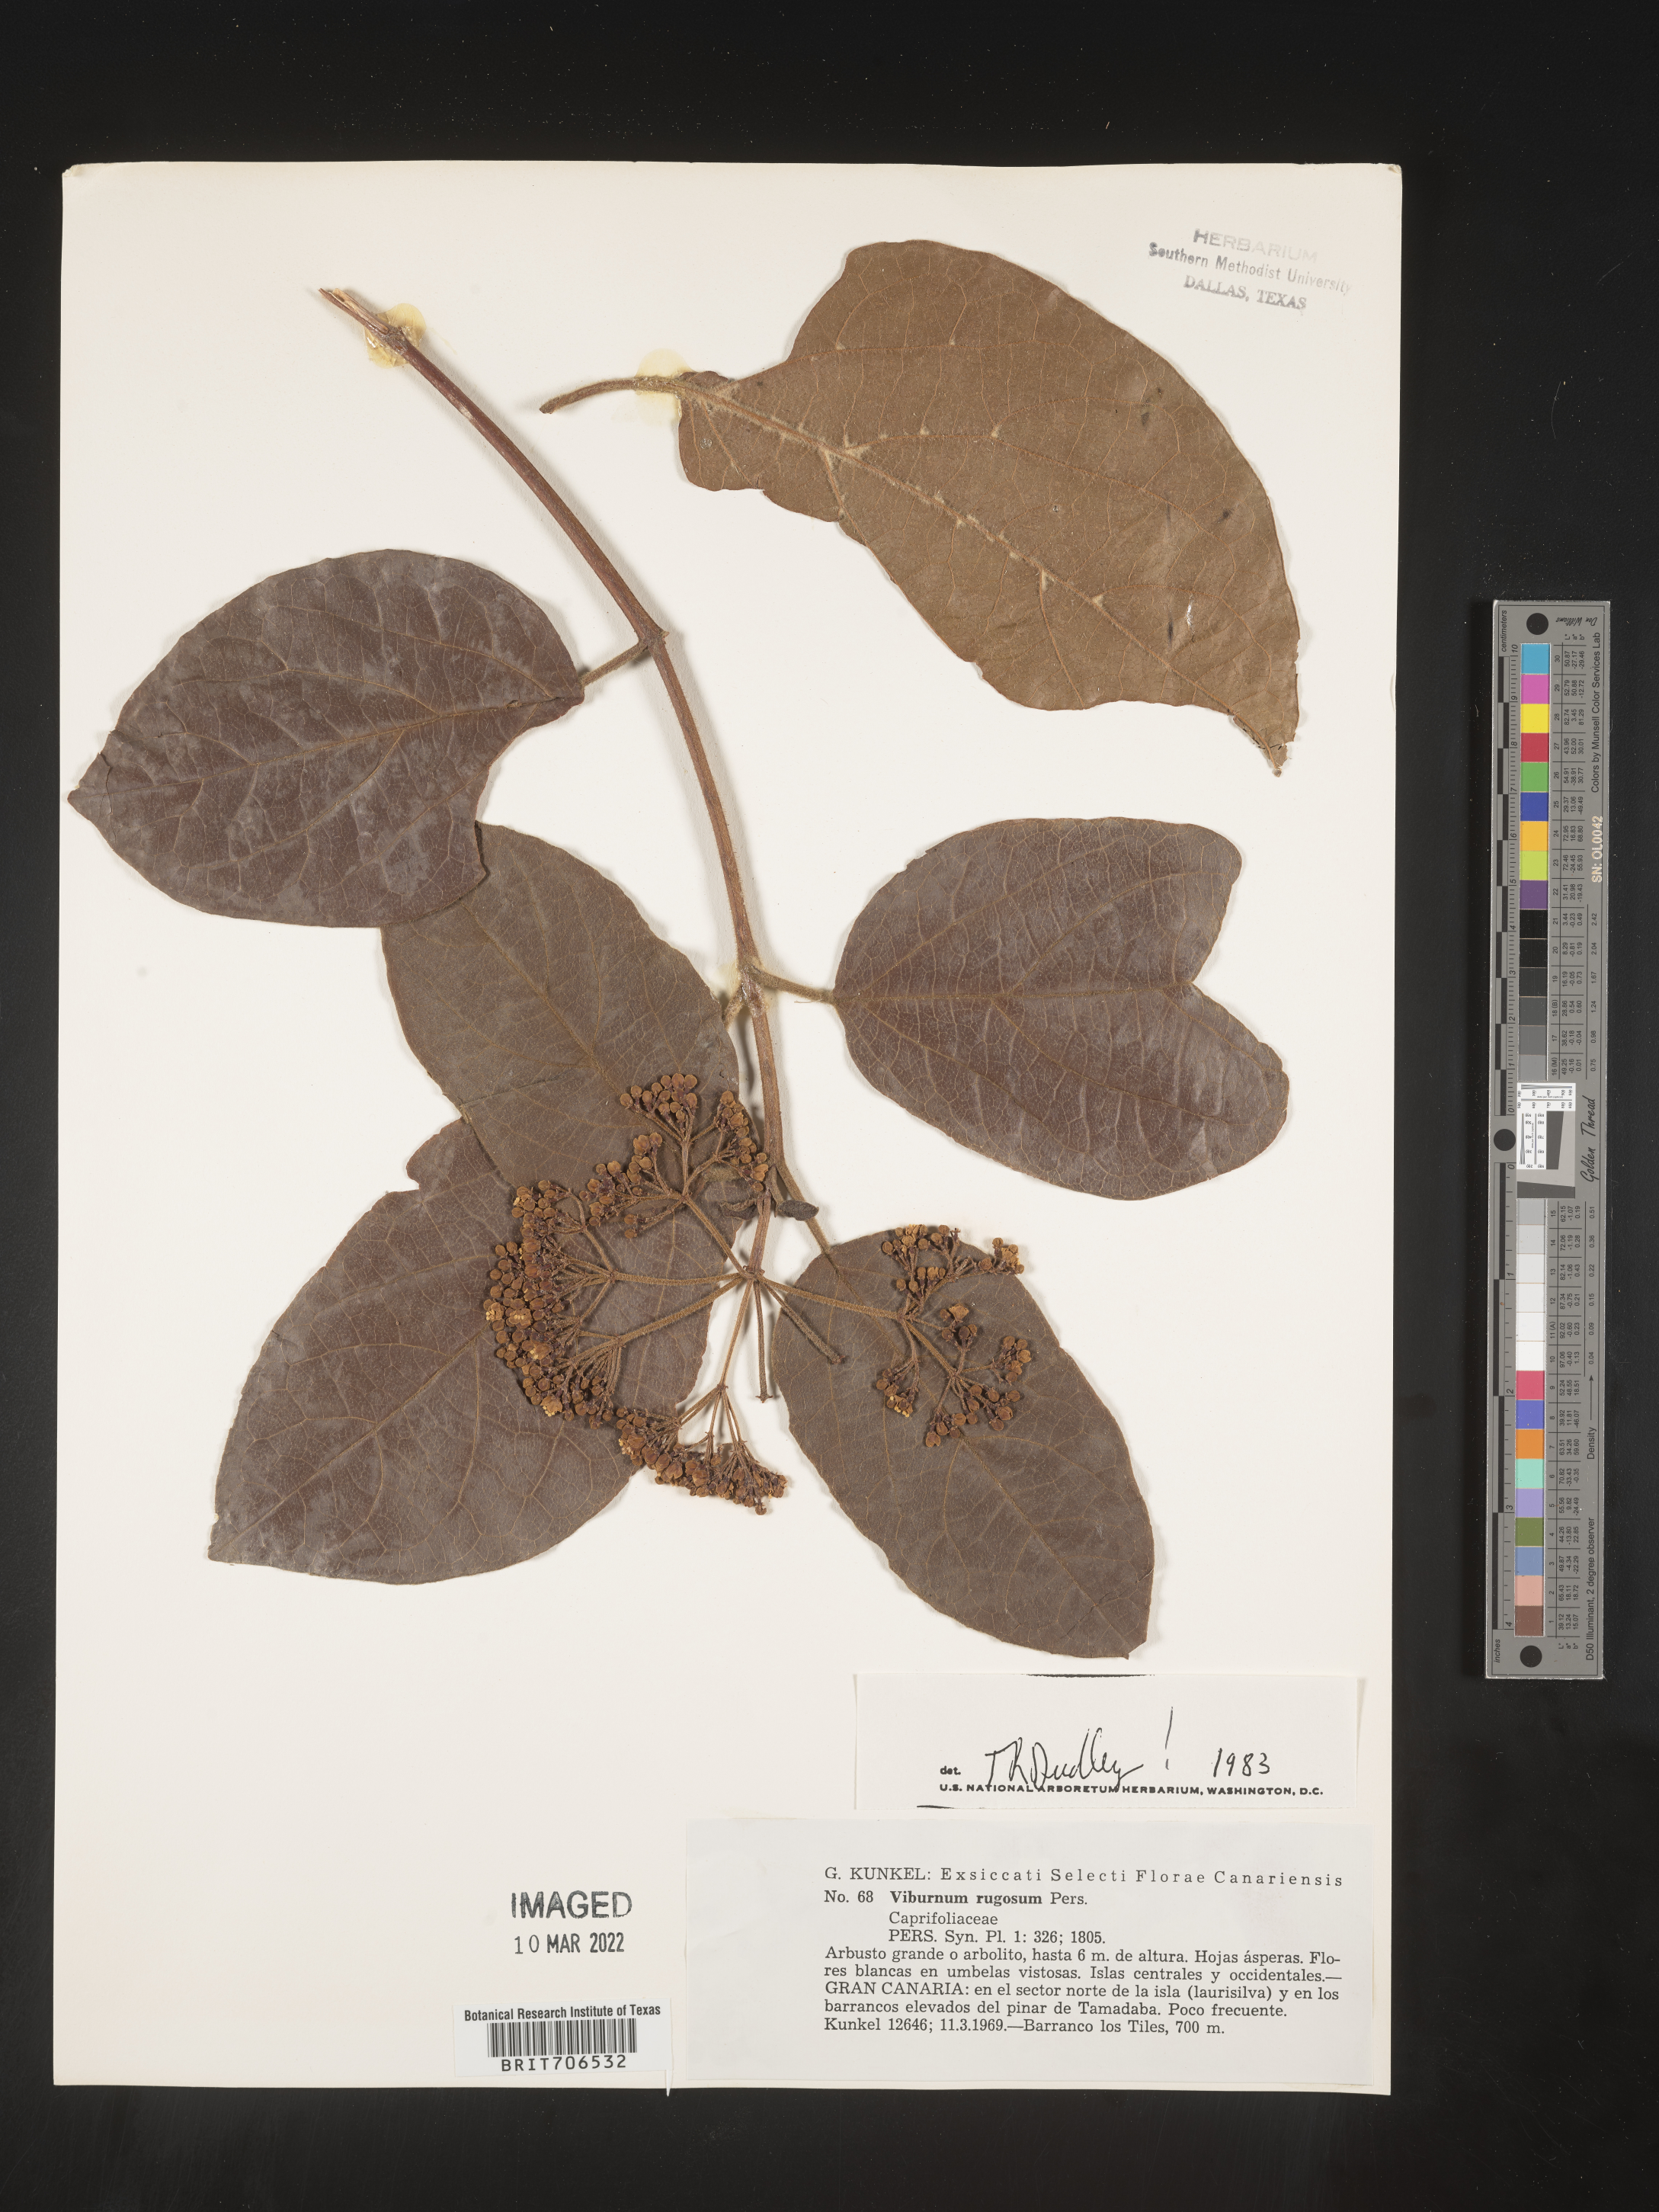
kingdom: Plantae
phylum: Tracheophyta
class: Magnoliopsida
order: Dipsacales
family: Viburnaceae
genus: Viburnum
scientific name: Viburnum
